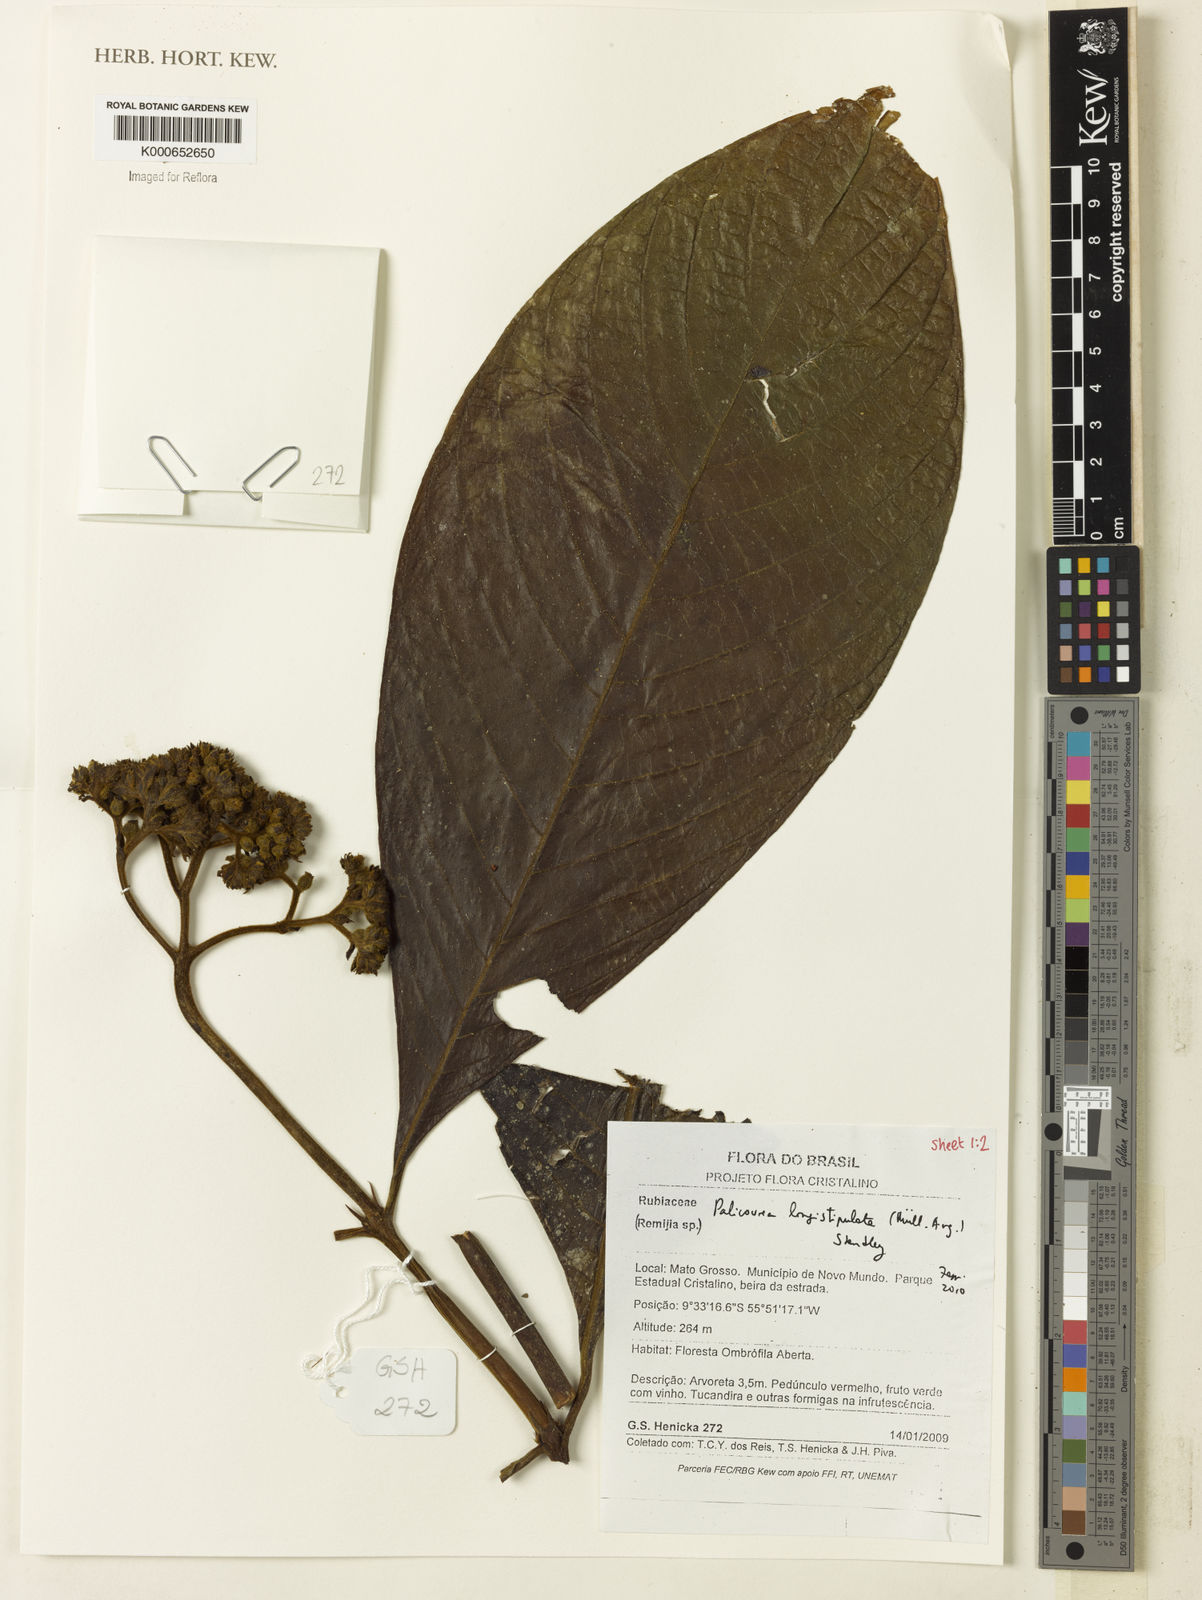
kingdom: Plantae
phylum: Tracheophyta
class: Magnoliopsida
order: Gentianales
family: Rubiaceae
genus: Palicourea
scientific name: Palicourea
